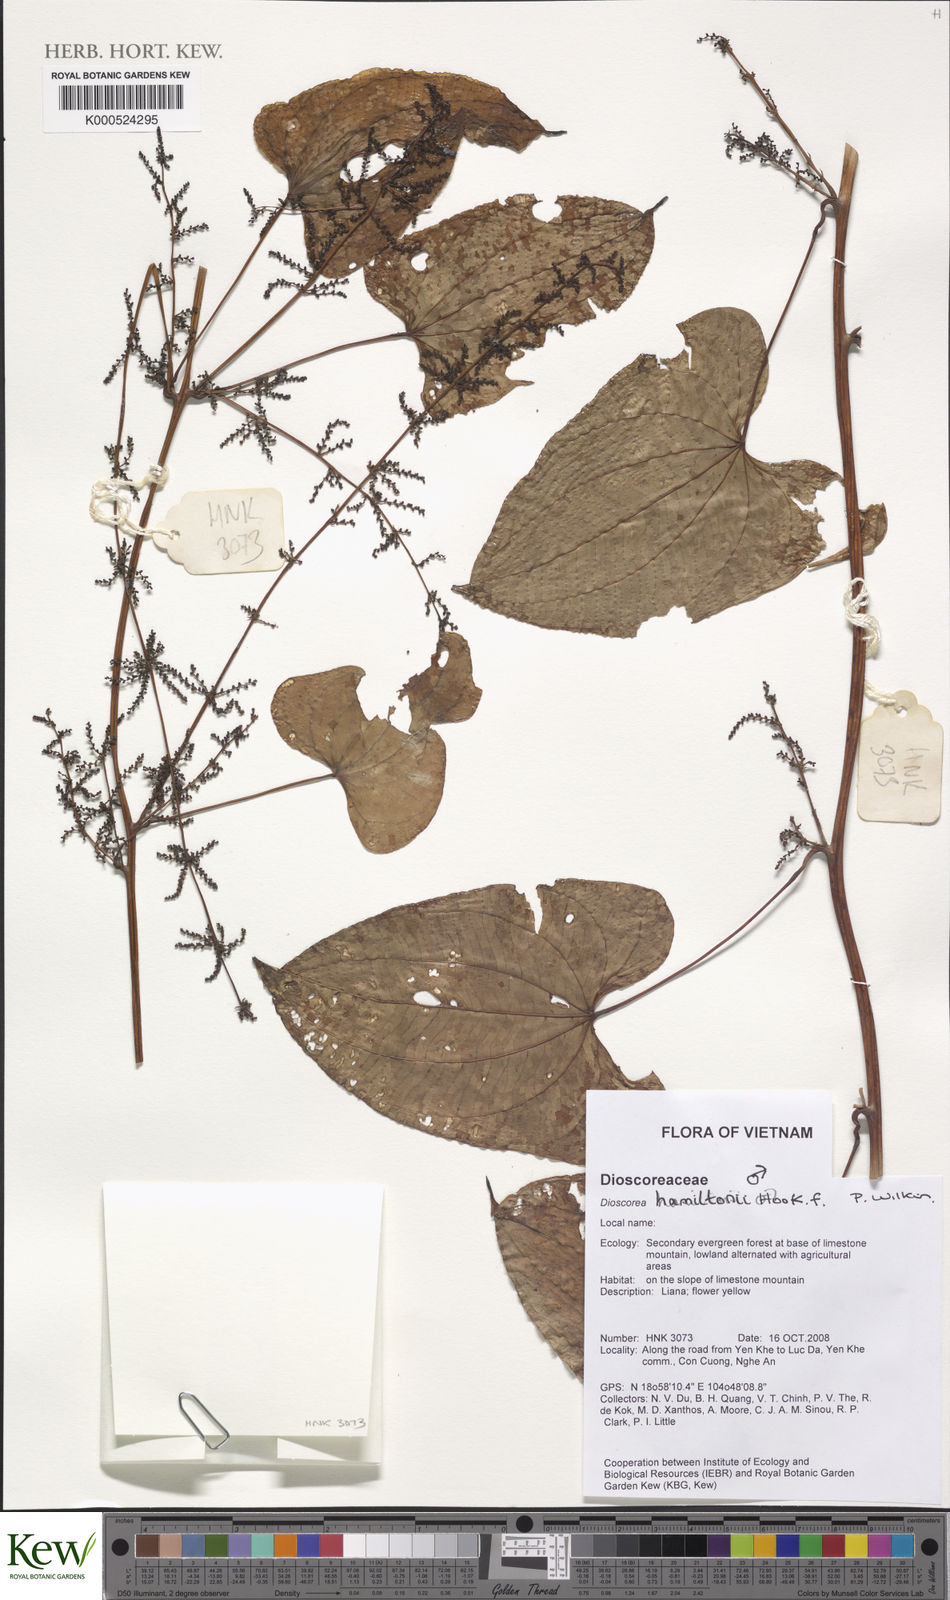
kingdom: Plantae
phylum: Tracheophyta
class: Liliopsida
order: Dioscoreales
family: Dioscoreaceae
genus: Dioscorea
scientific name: Dioscorea hamiltonii
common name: Mountain yam
